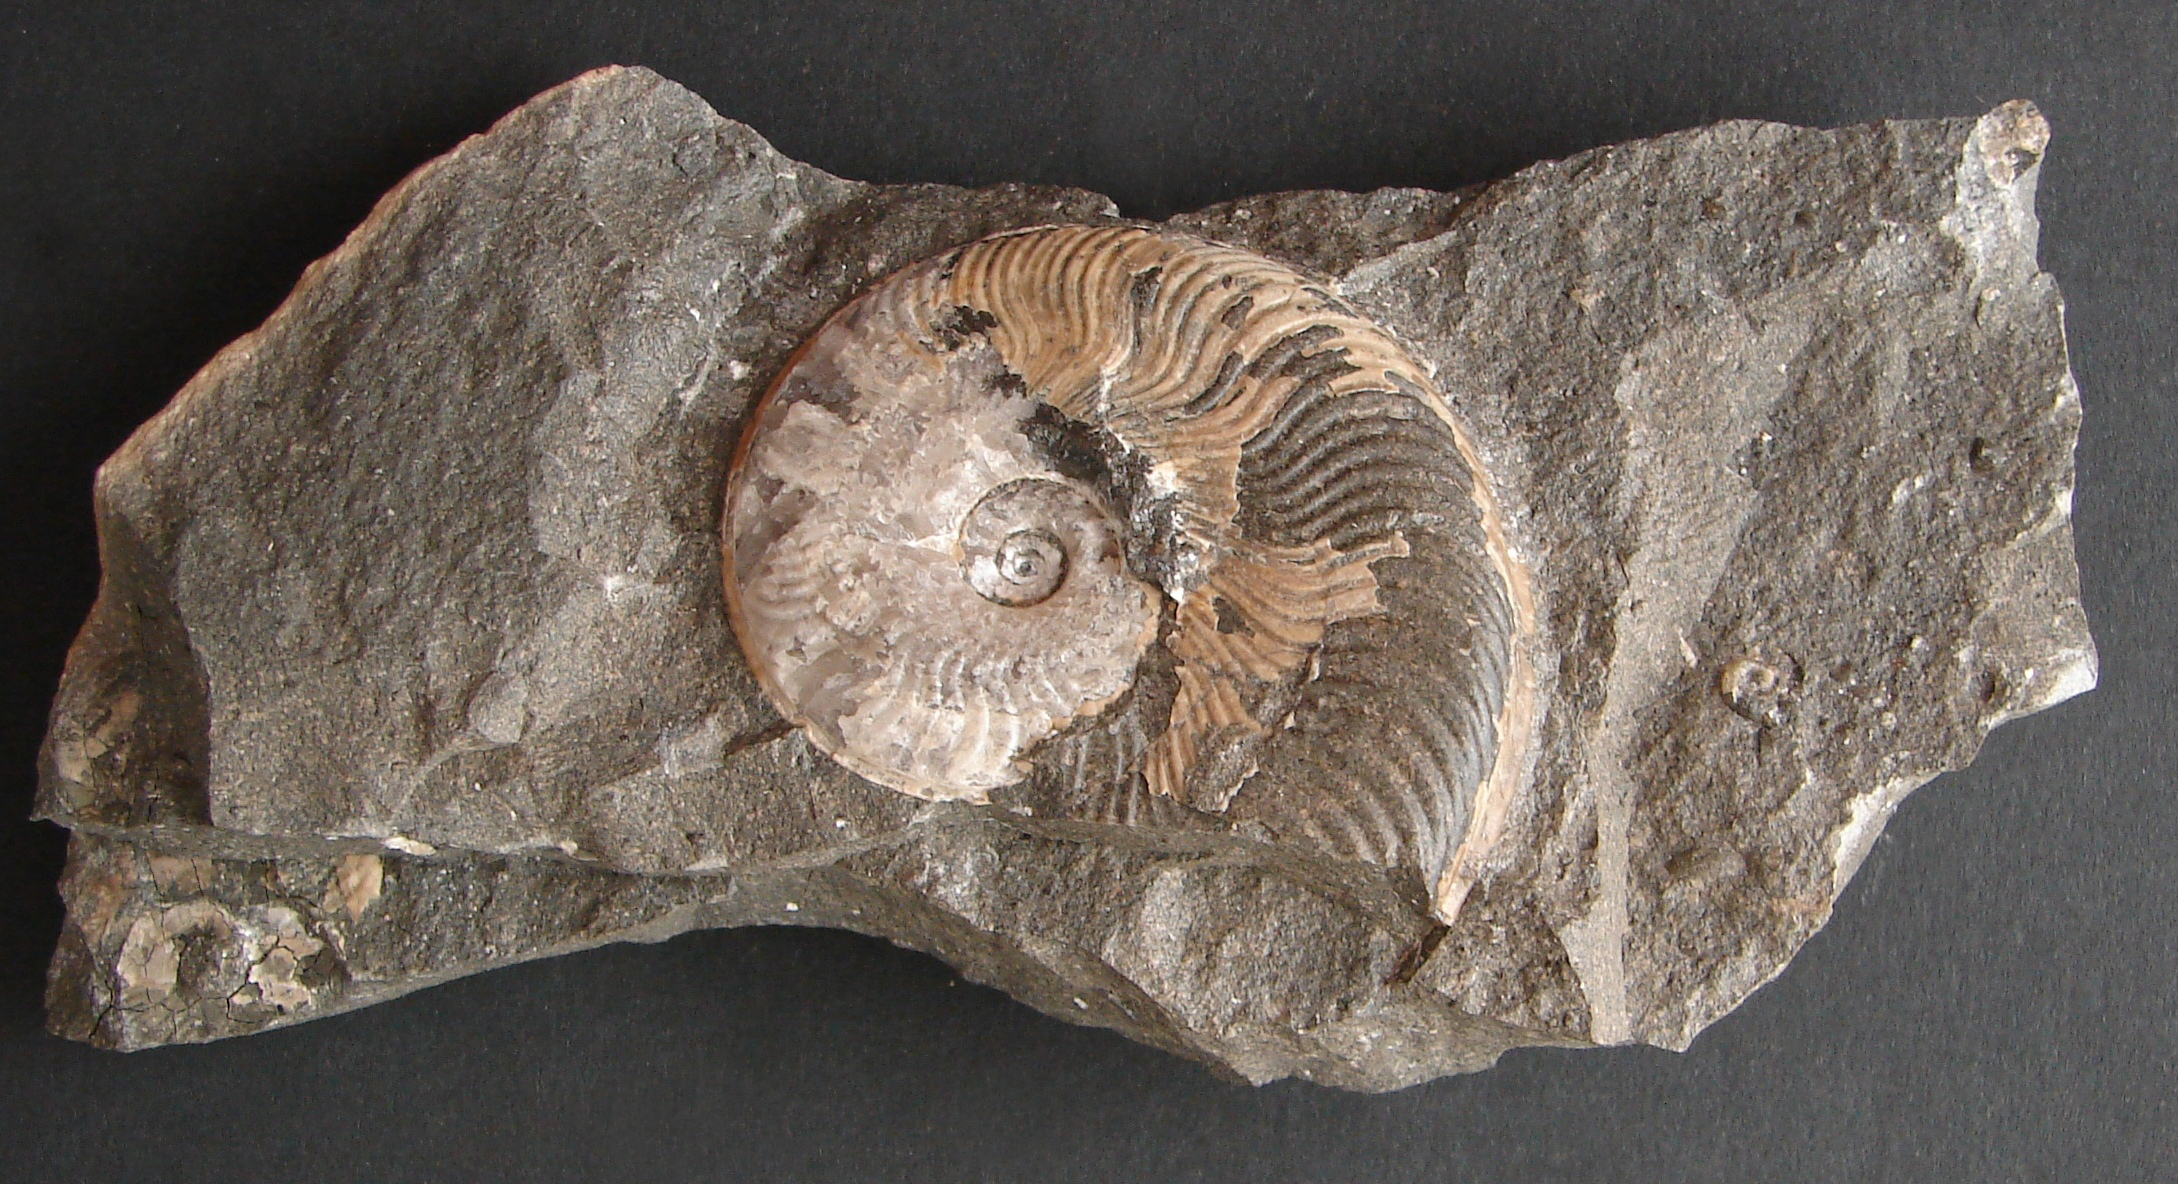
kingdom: Animalia
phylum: Mollusca
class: Cephalopoda
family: Hildoceratidae
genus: Eleganticeras
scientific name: Eleganticeras exaratum
